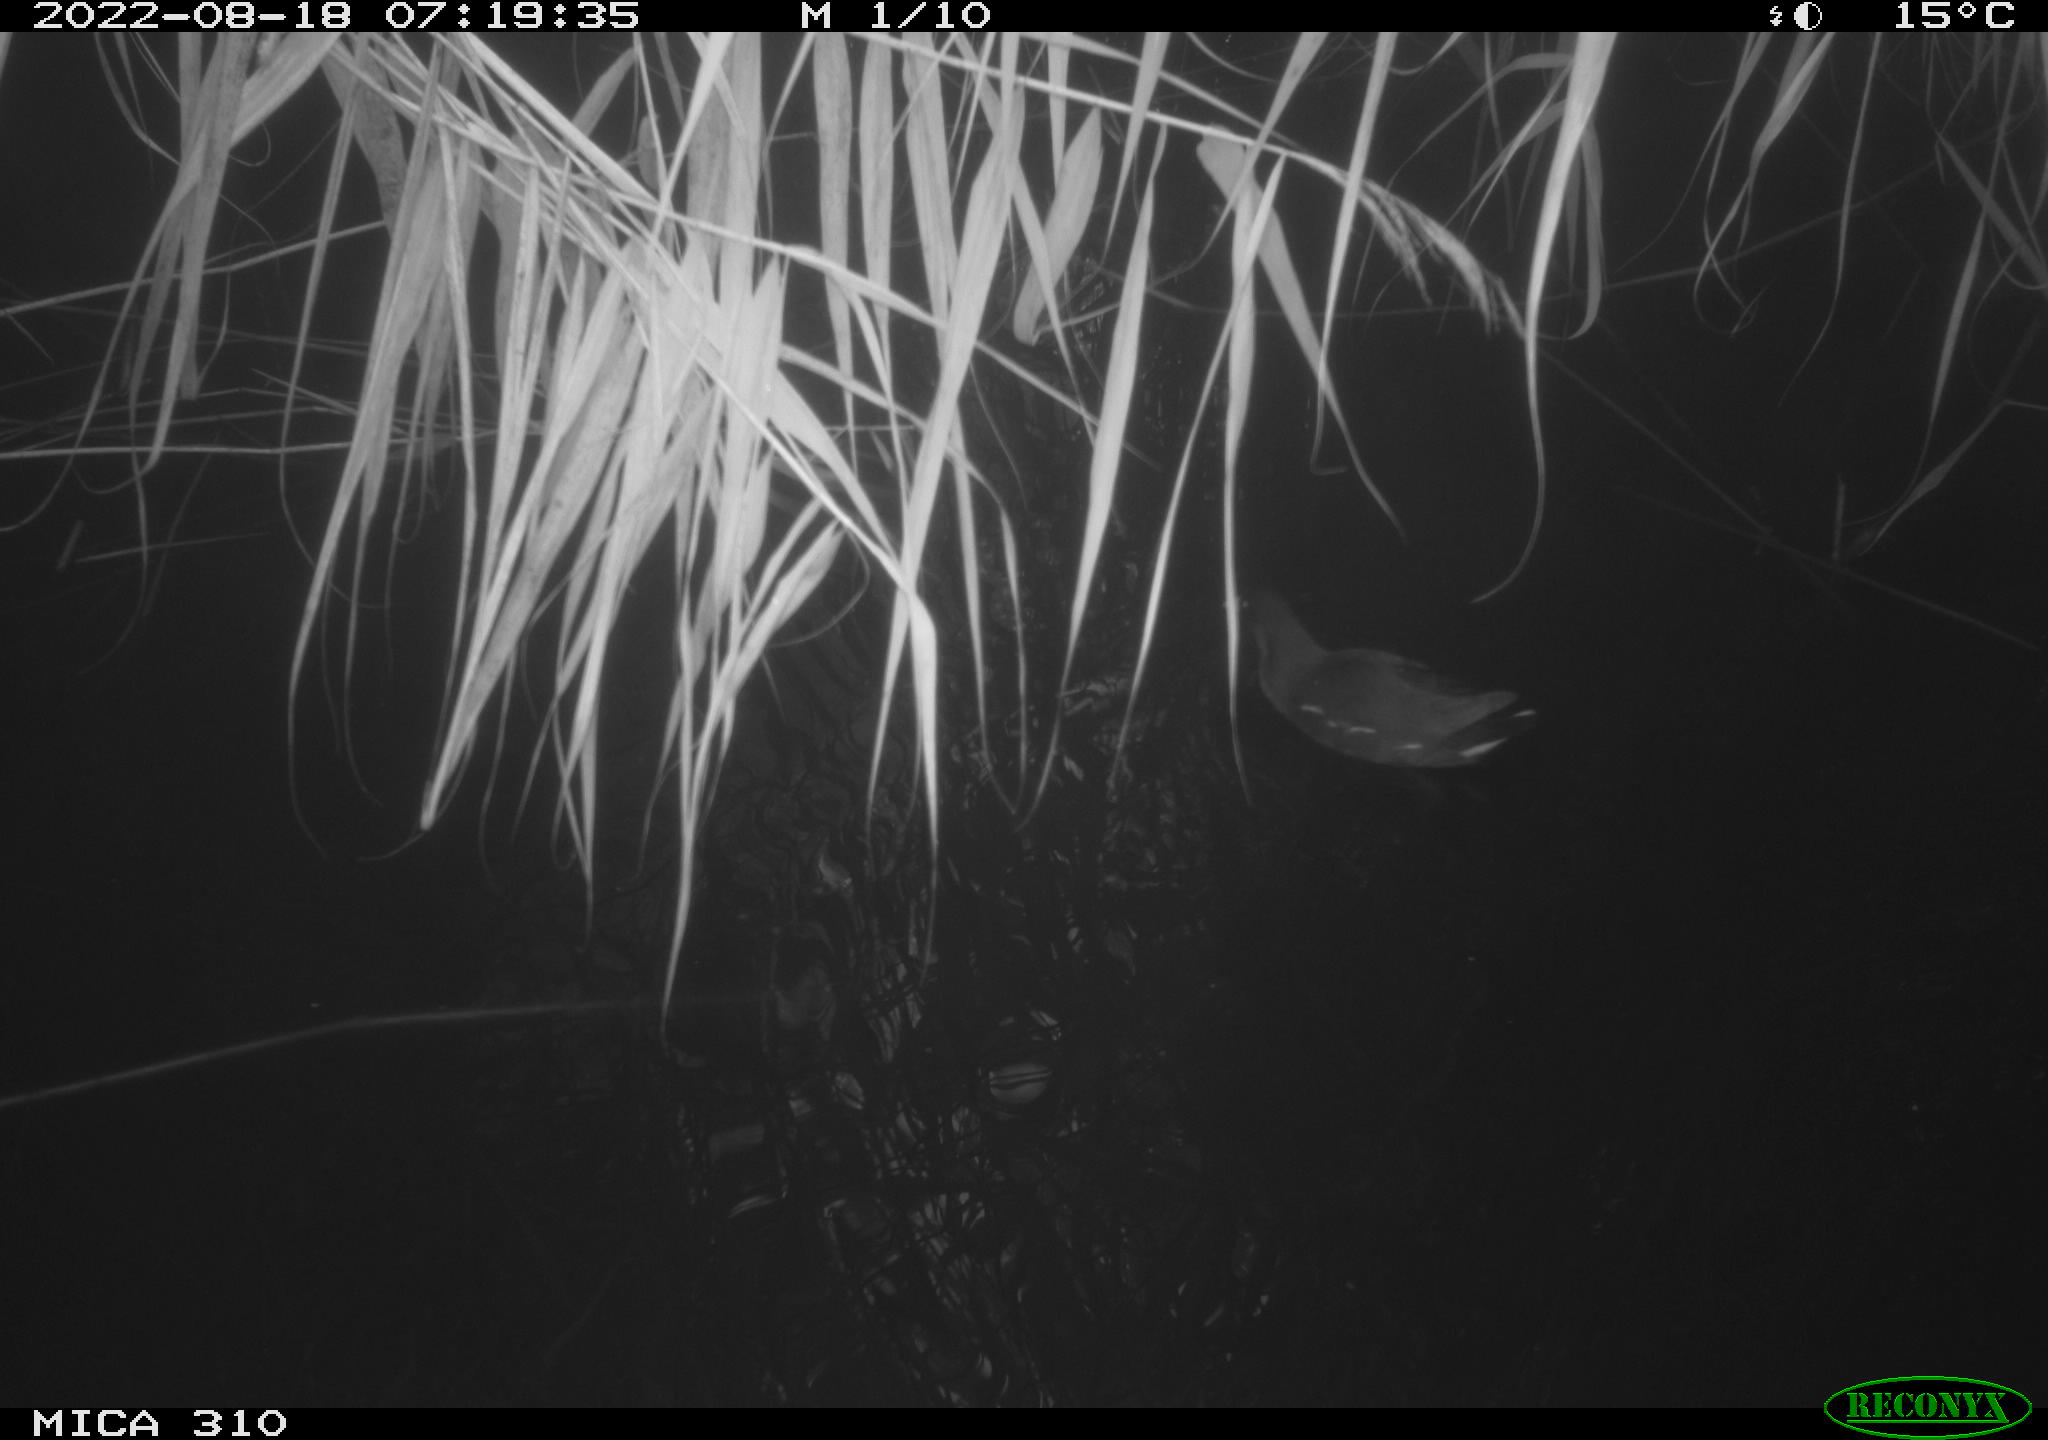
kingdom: Animalia
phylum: Chordata
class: Aves
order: Gruiformes
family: Rallidae
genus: Gallinula
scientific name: Gallinula chloropus
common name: Common moorhen
